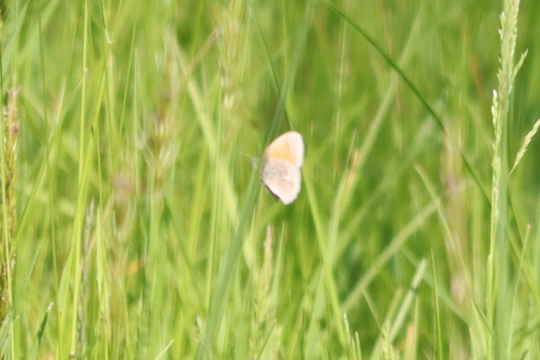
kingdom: Animalia
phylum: Arthropoda
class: Insecta
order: Lepidoptera
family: Nymphalidae
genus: Coenonympha
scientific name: Coenonympha california
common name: California Ringlet
